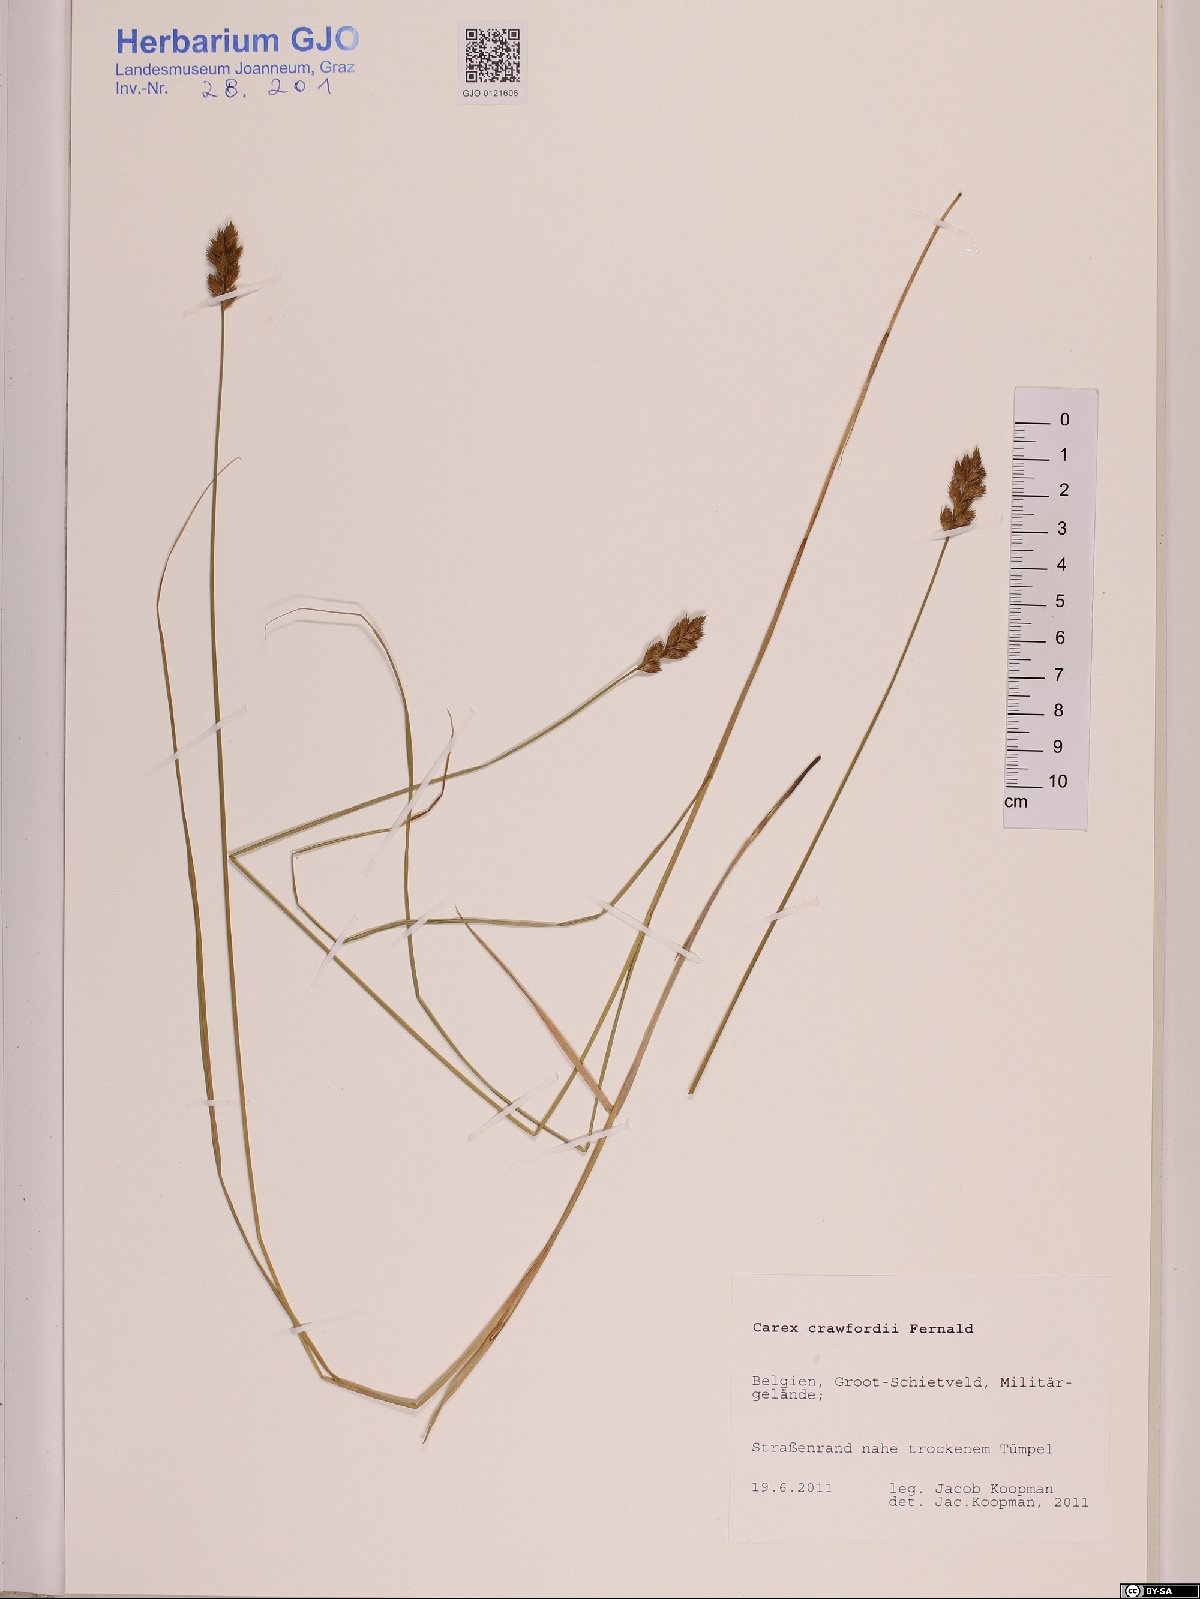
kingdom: Plantae
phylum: Tracheophyta
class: Liliopsida
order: Poales
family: Cyperaceae
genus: Carex
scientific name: Carex crawfordii
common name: Crawford's sedge
